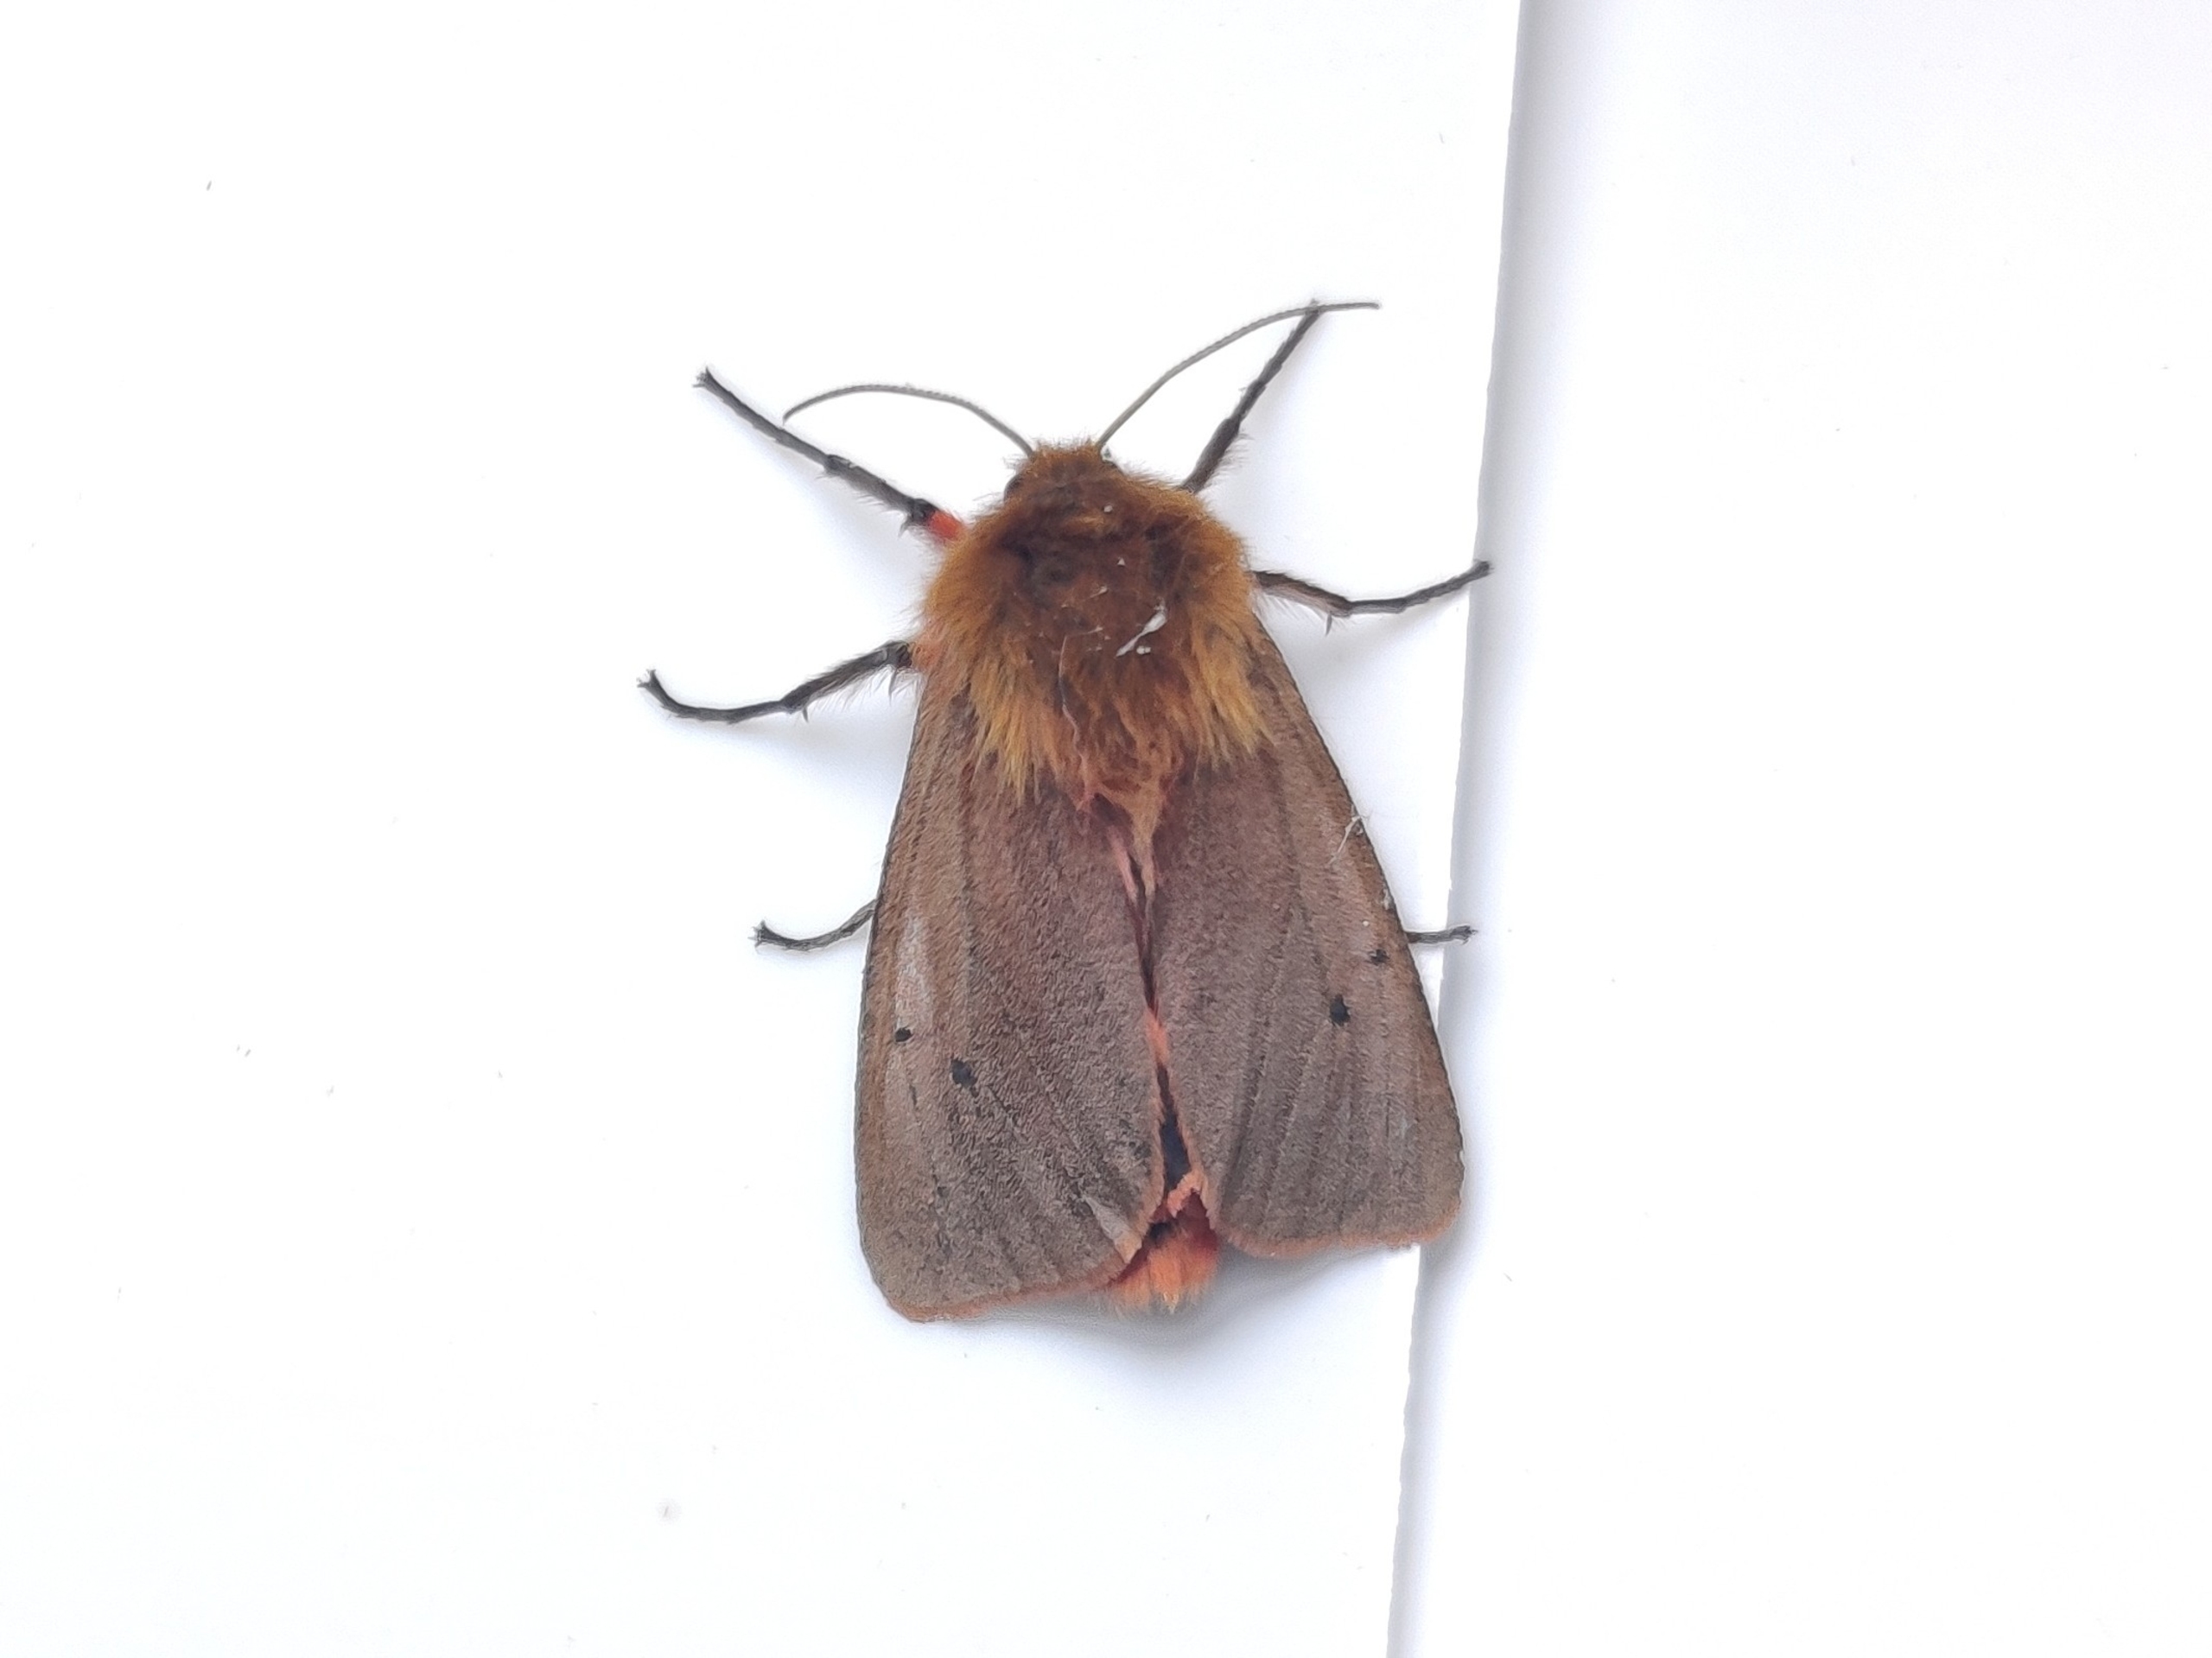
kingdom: Animalia
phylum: Arthropoda
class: Insecta
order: Lepidoptera
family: Erebidae
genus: Phragmatobia
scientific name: Phragmatobia fuliginosa
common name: Kanelbjørn
